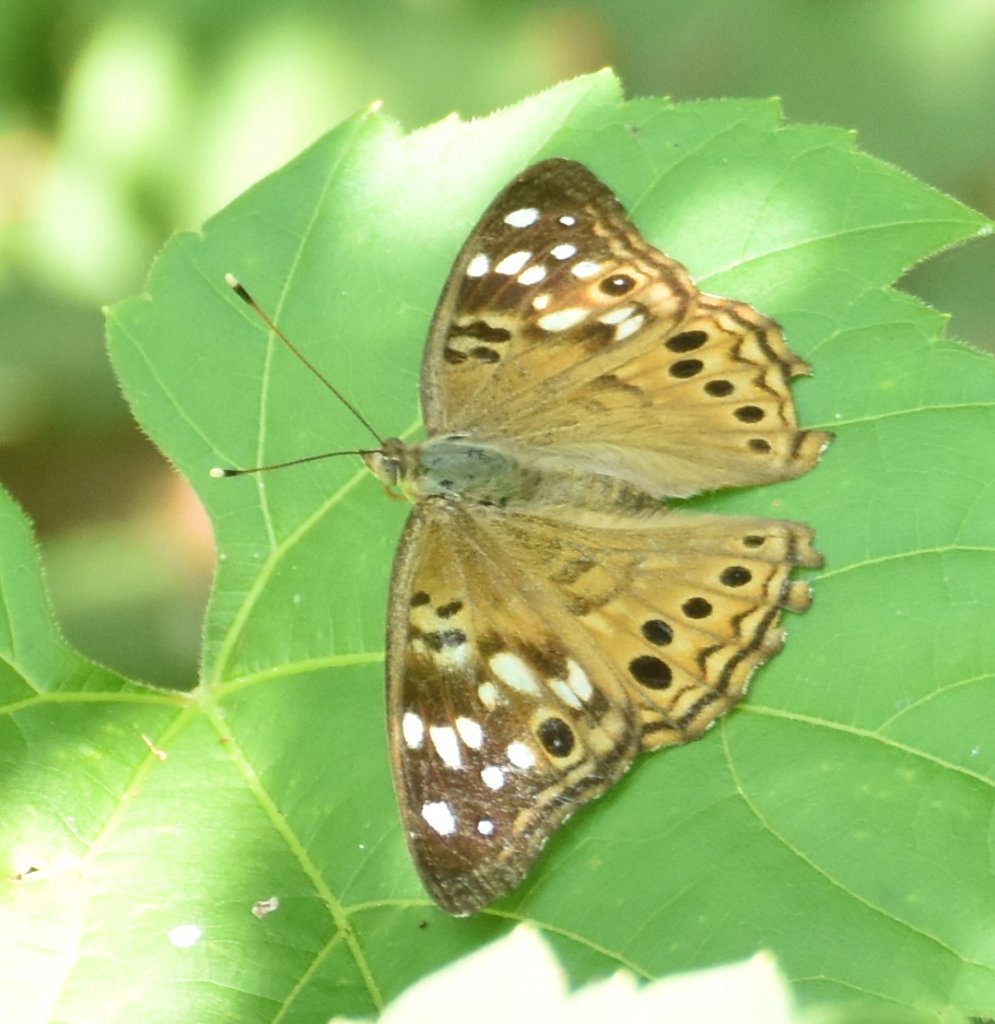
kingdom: Animalia
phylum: Arthropoda
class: Insecta
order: Lepidoptera
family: Nymphalidae
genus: Asterocampa
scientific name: Asterocampa celtis
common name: Hackberry Emperor
